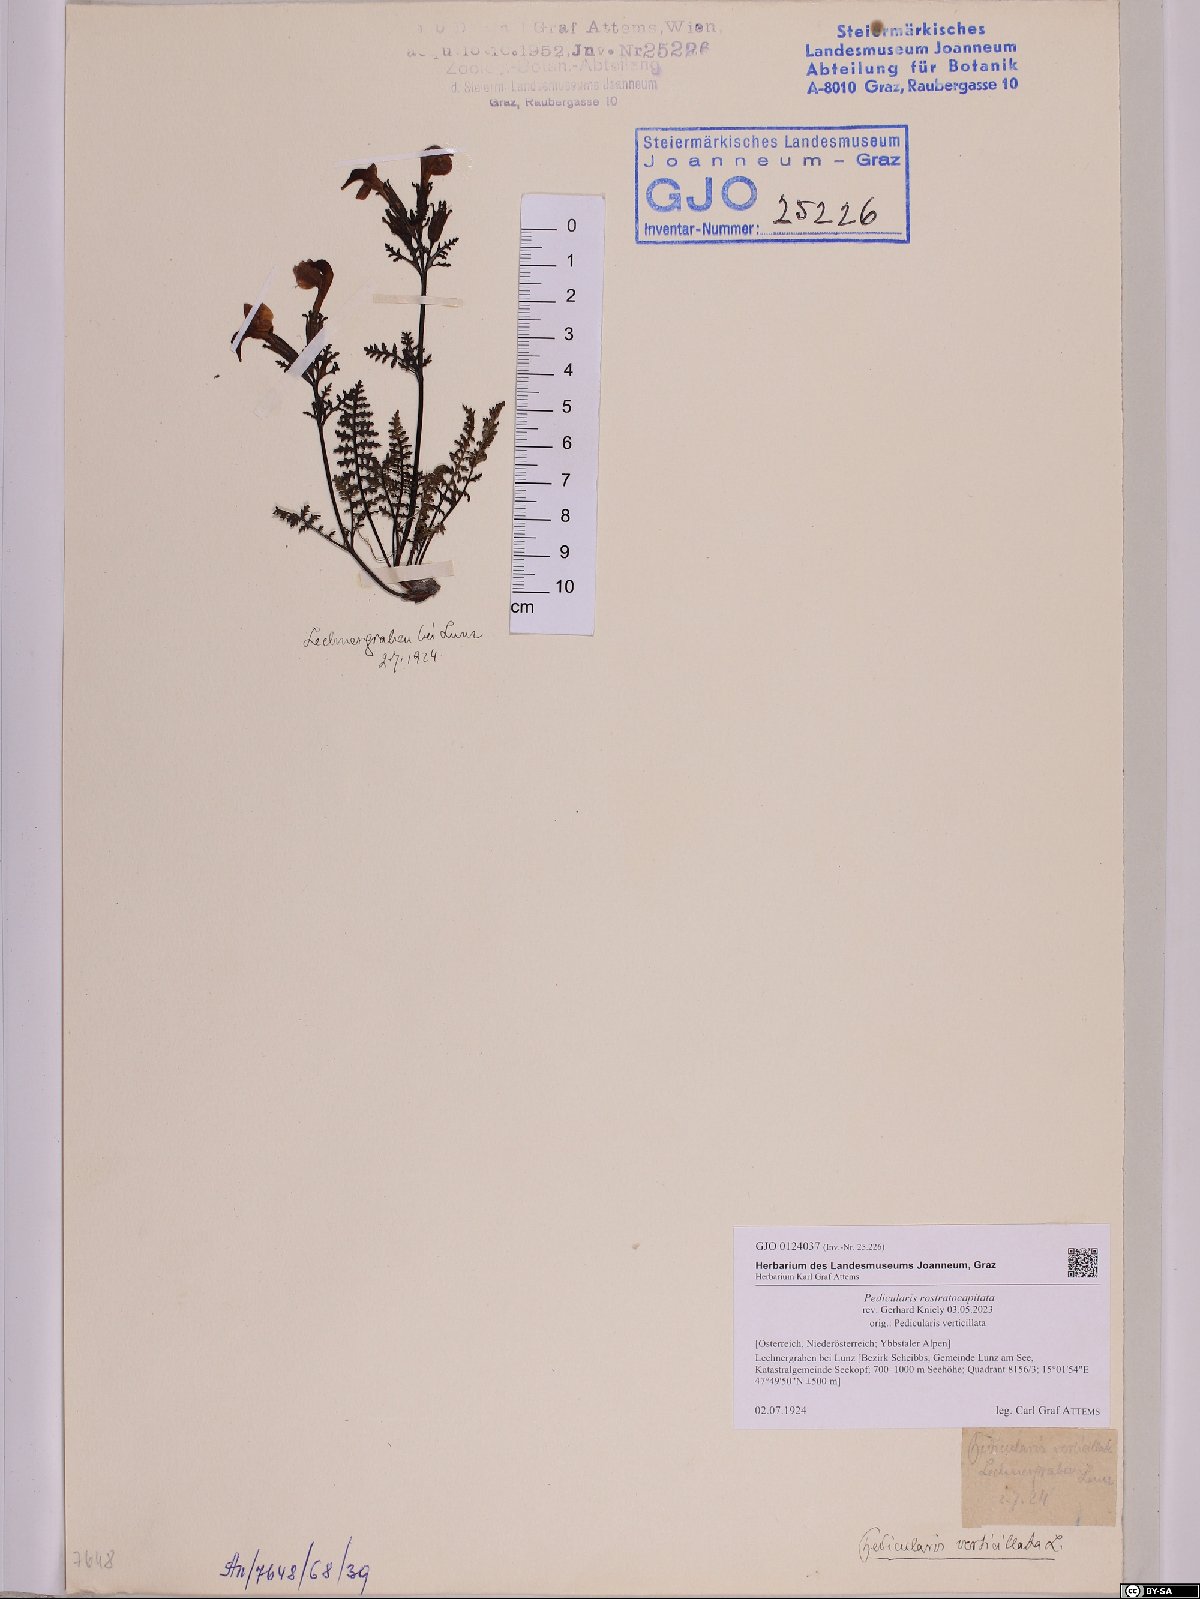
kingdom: Plantae
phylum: Tracheophyta
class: Magnoliopsida
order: Lamiales
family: Orobanchaceae
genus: Pedicularis
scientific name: Pedicularis rostratocapitata
